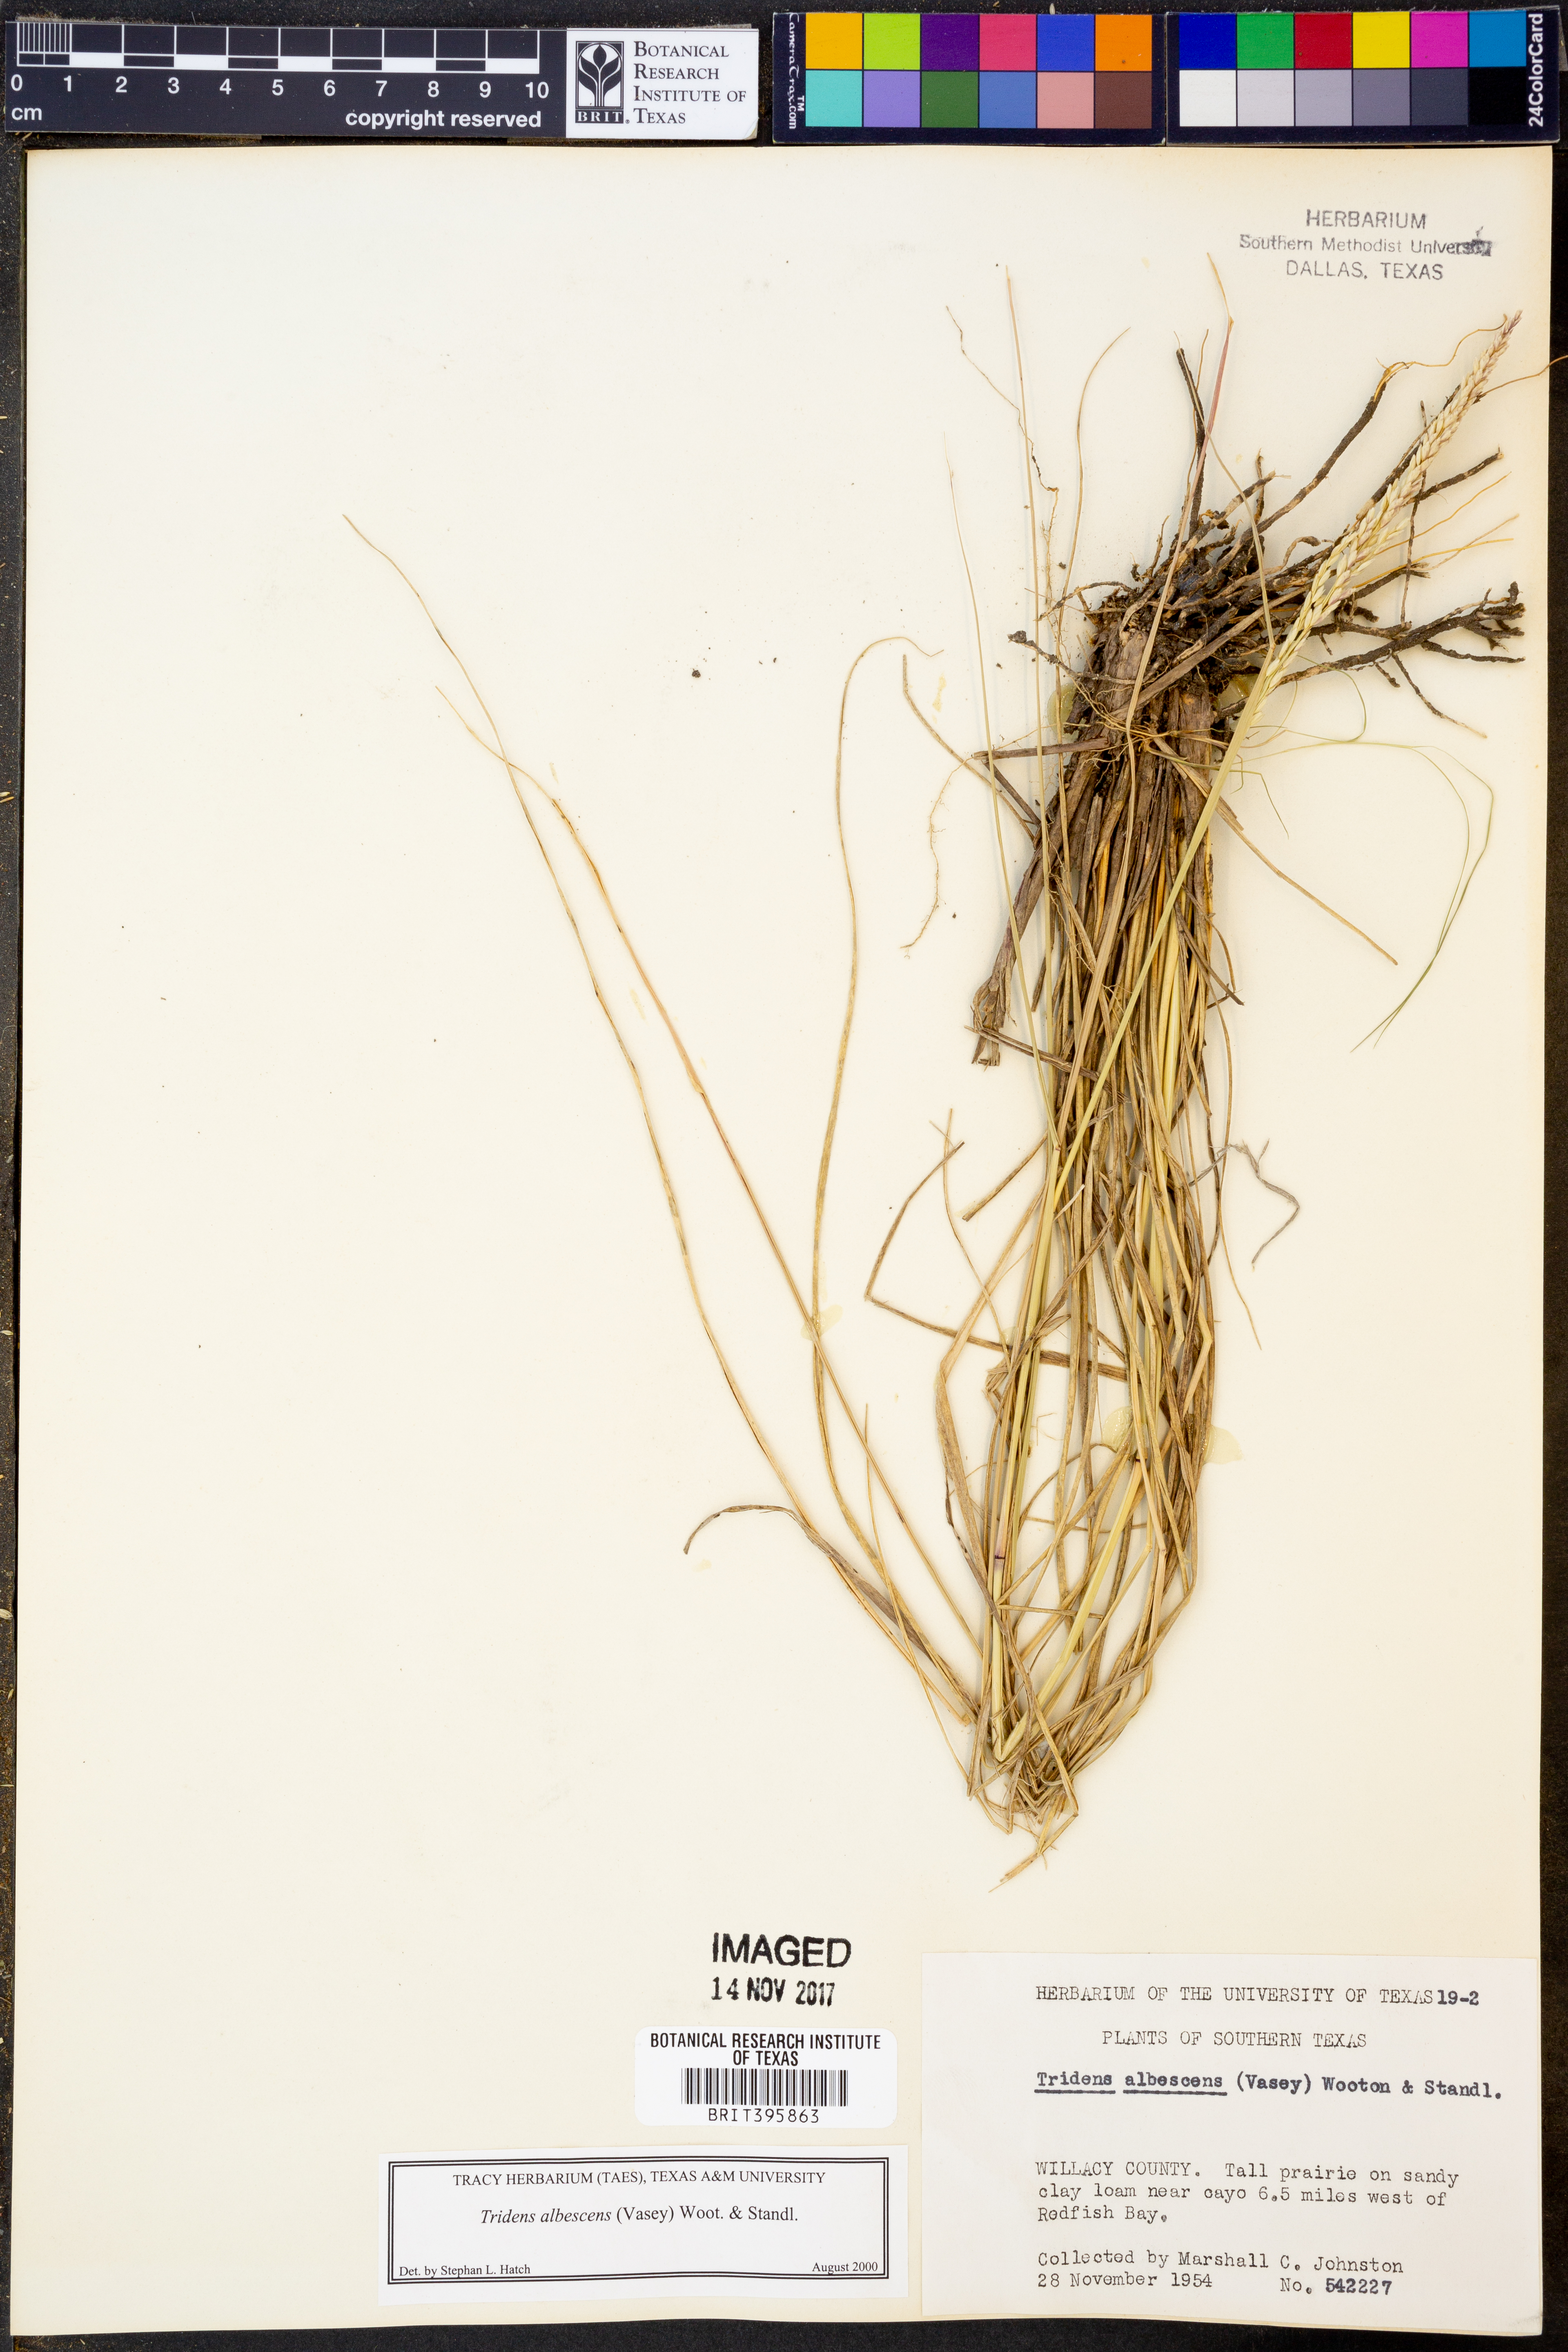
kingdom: Plantae
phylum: Tracheophyta
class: Liliopsida
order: Poales
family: Poaceae
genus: Tridens
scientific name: Tridens albescens
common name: White tridens
